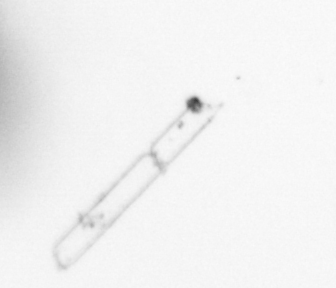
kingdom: Animalia
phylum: Annelida
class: Polychaeta
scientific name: Polychaeta
